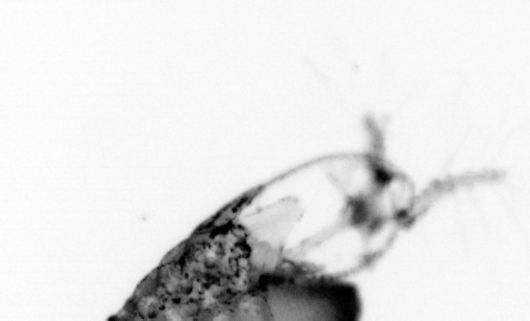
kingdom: Animalia
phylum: Arthropoda
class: Copepoda
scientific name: Copepoda
